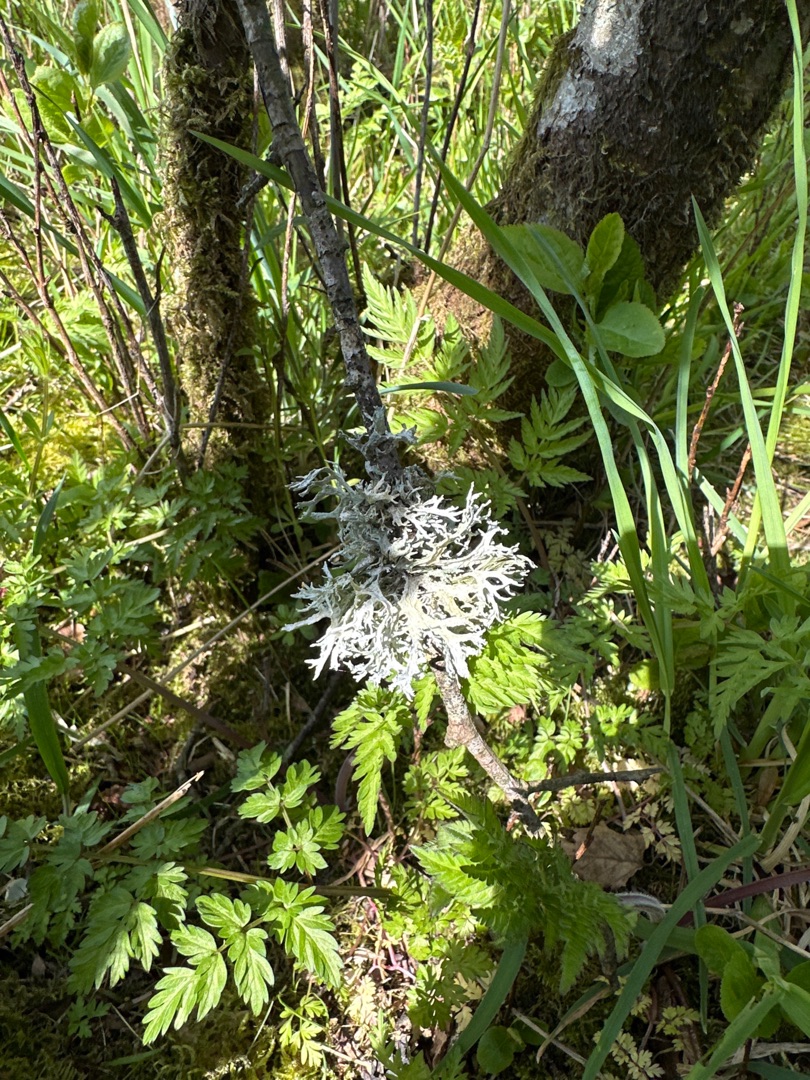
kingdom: Fungi
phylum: Ascomycota
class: Lecanoromycetes
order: Lecanorales
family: Parmeliaceae
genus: Evernia
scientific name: Evernia prunastri
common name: Almindelig slåenlav
